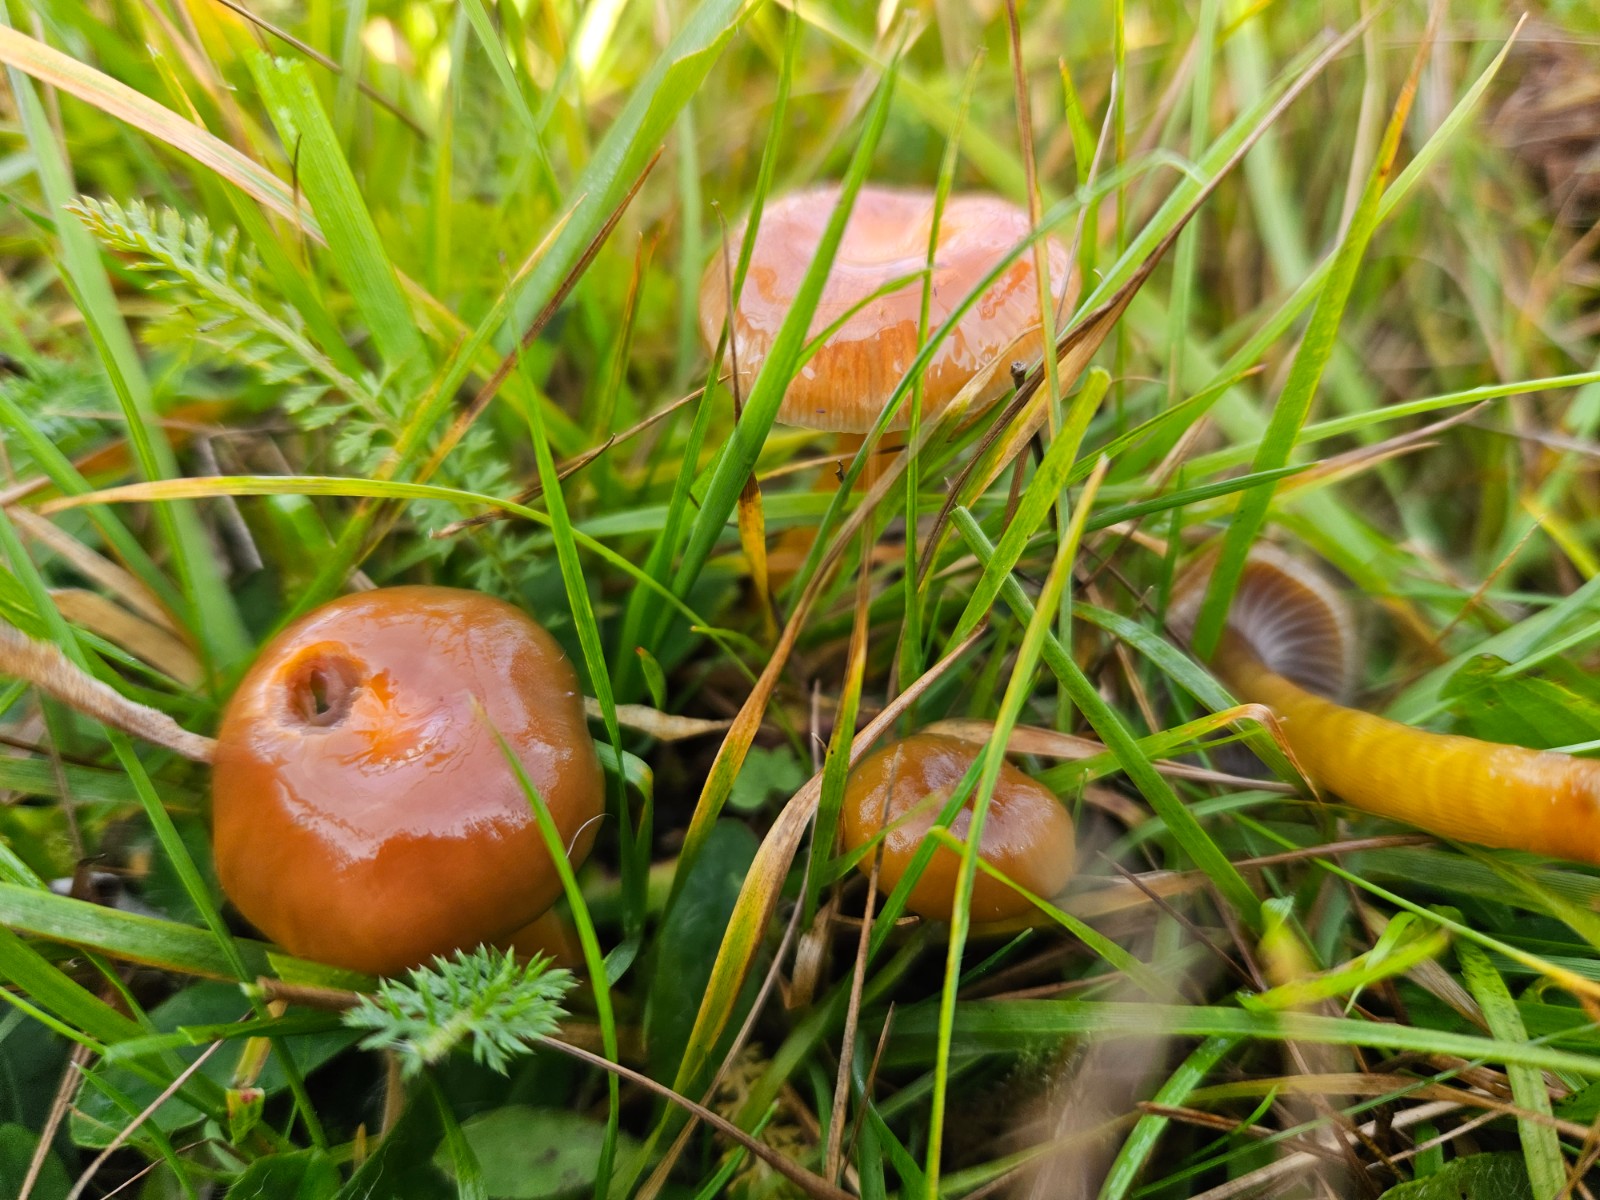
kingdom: Fungi
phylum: Basidiomycota
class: Agaricomycetes
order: Agaricales
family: Hygrophoraceae
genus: Gliophorus
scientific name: Gliophorus laetus
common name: brusk-vokshat
